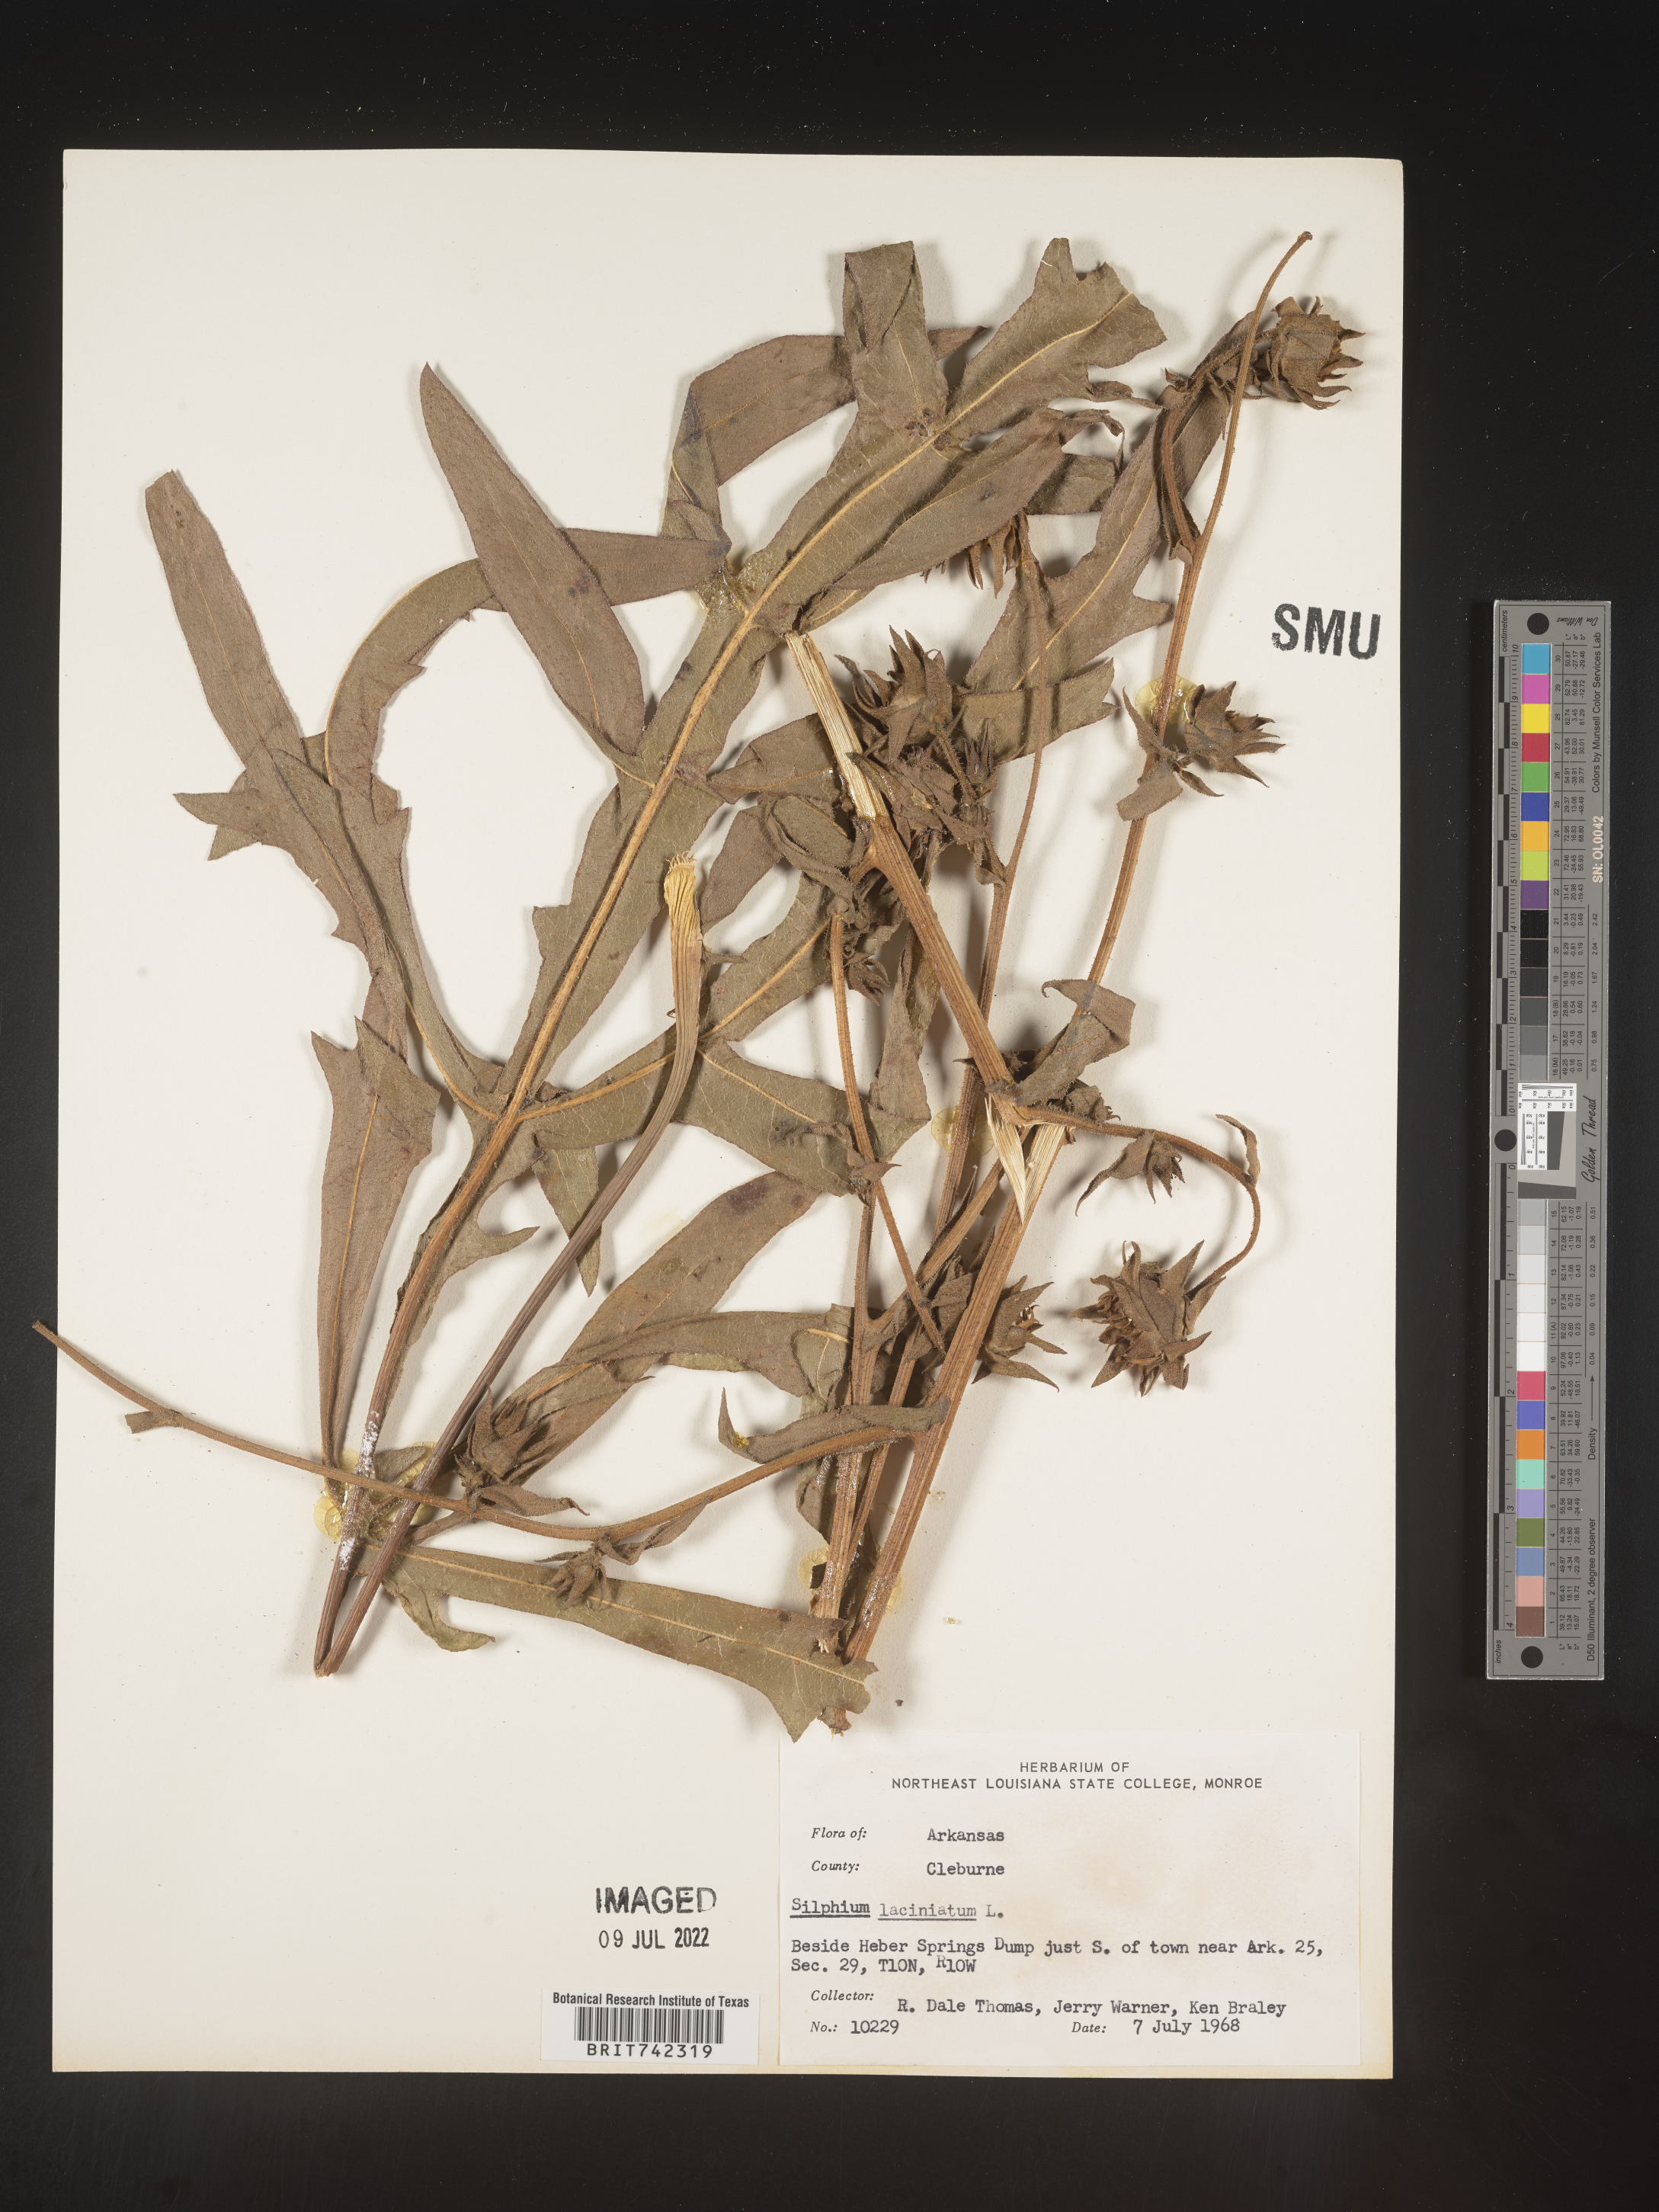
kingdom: Plantae
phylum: Tracheophyta
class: Magnoliopsida
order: Asterales
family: Asteraceae
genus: Silphium
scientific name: Silphium laciniatum
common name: Polarplant
